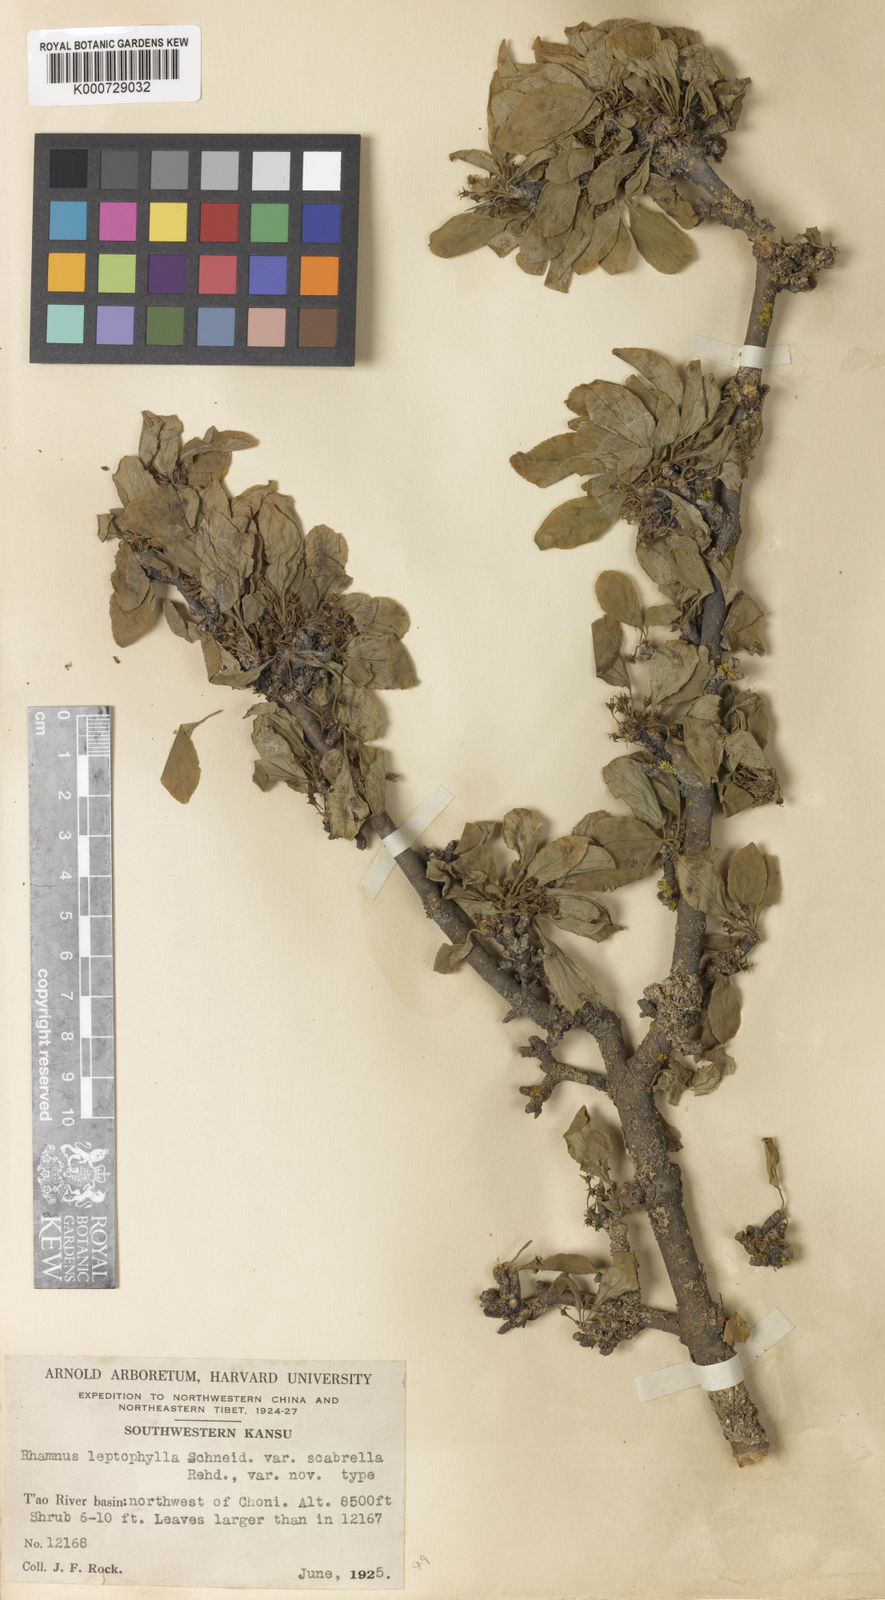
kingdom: Plantae
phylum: Tracheophyta
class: Magnoliopsida
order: Rosales
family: Rhamnaceae
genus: Rhamnus
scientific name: Rhamnus leptophylla
